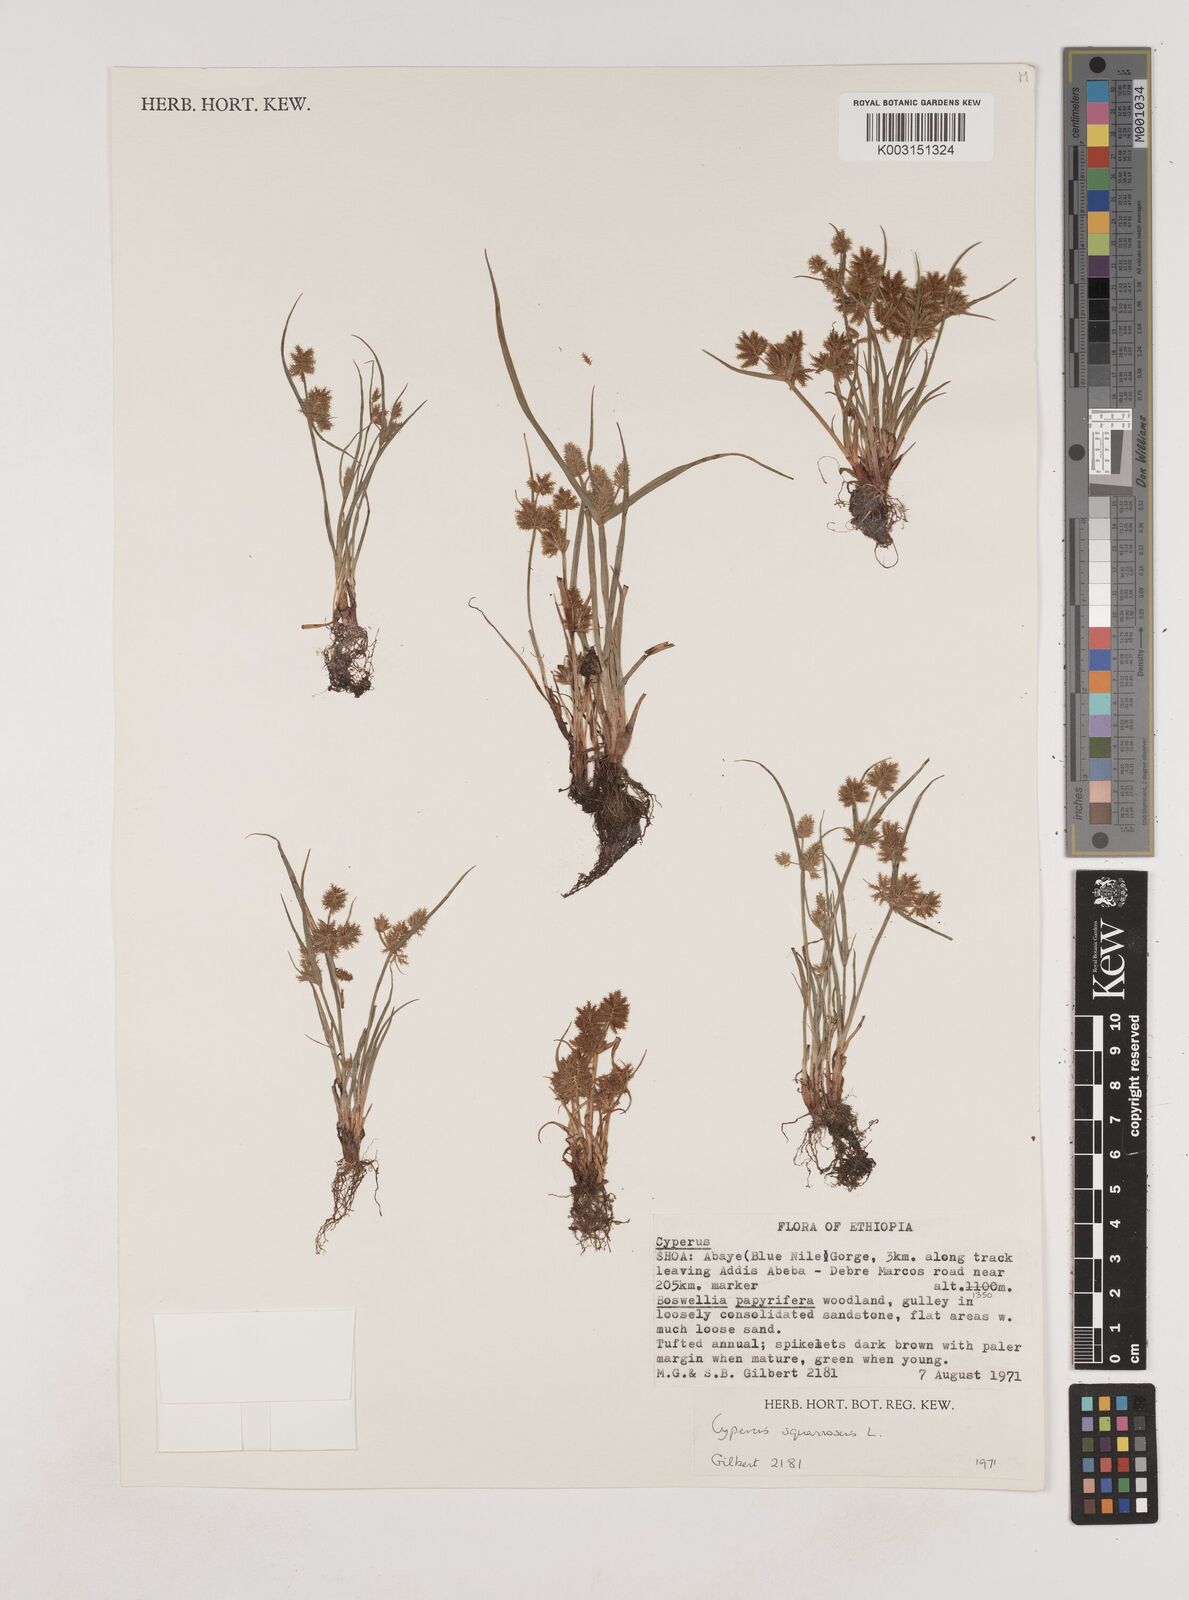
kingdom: Plantae
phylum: Tracheophyta
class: Liliopsida
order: Poales
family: Cyperaceae
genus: Cyperus
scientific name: Cyperus squarrosus
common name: Awned cyperus
